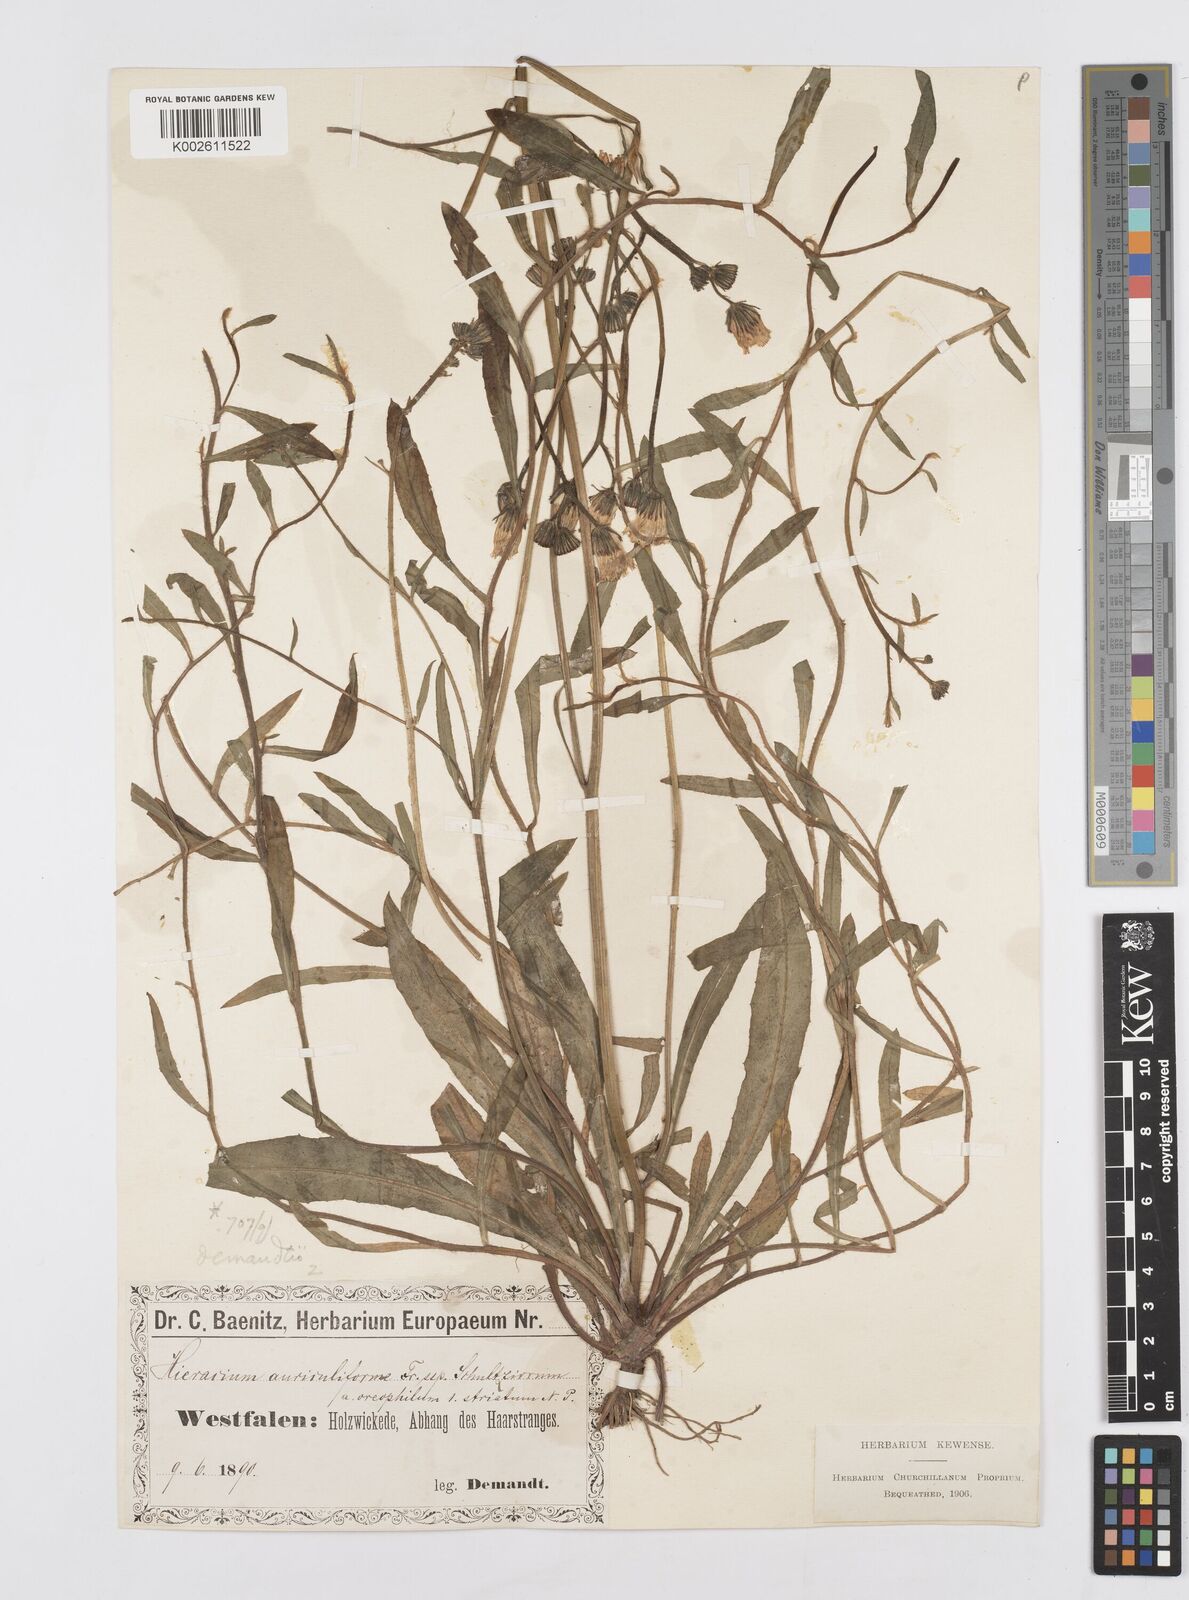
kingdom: Plantae
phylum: Tracheophyta
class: Magnoliopsida
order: Asterales
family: Asteraceae
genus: Pilosella
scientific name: Pilosella leptophyton
